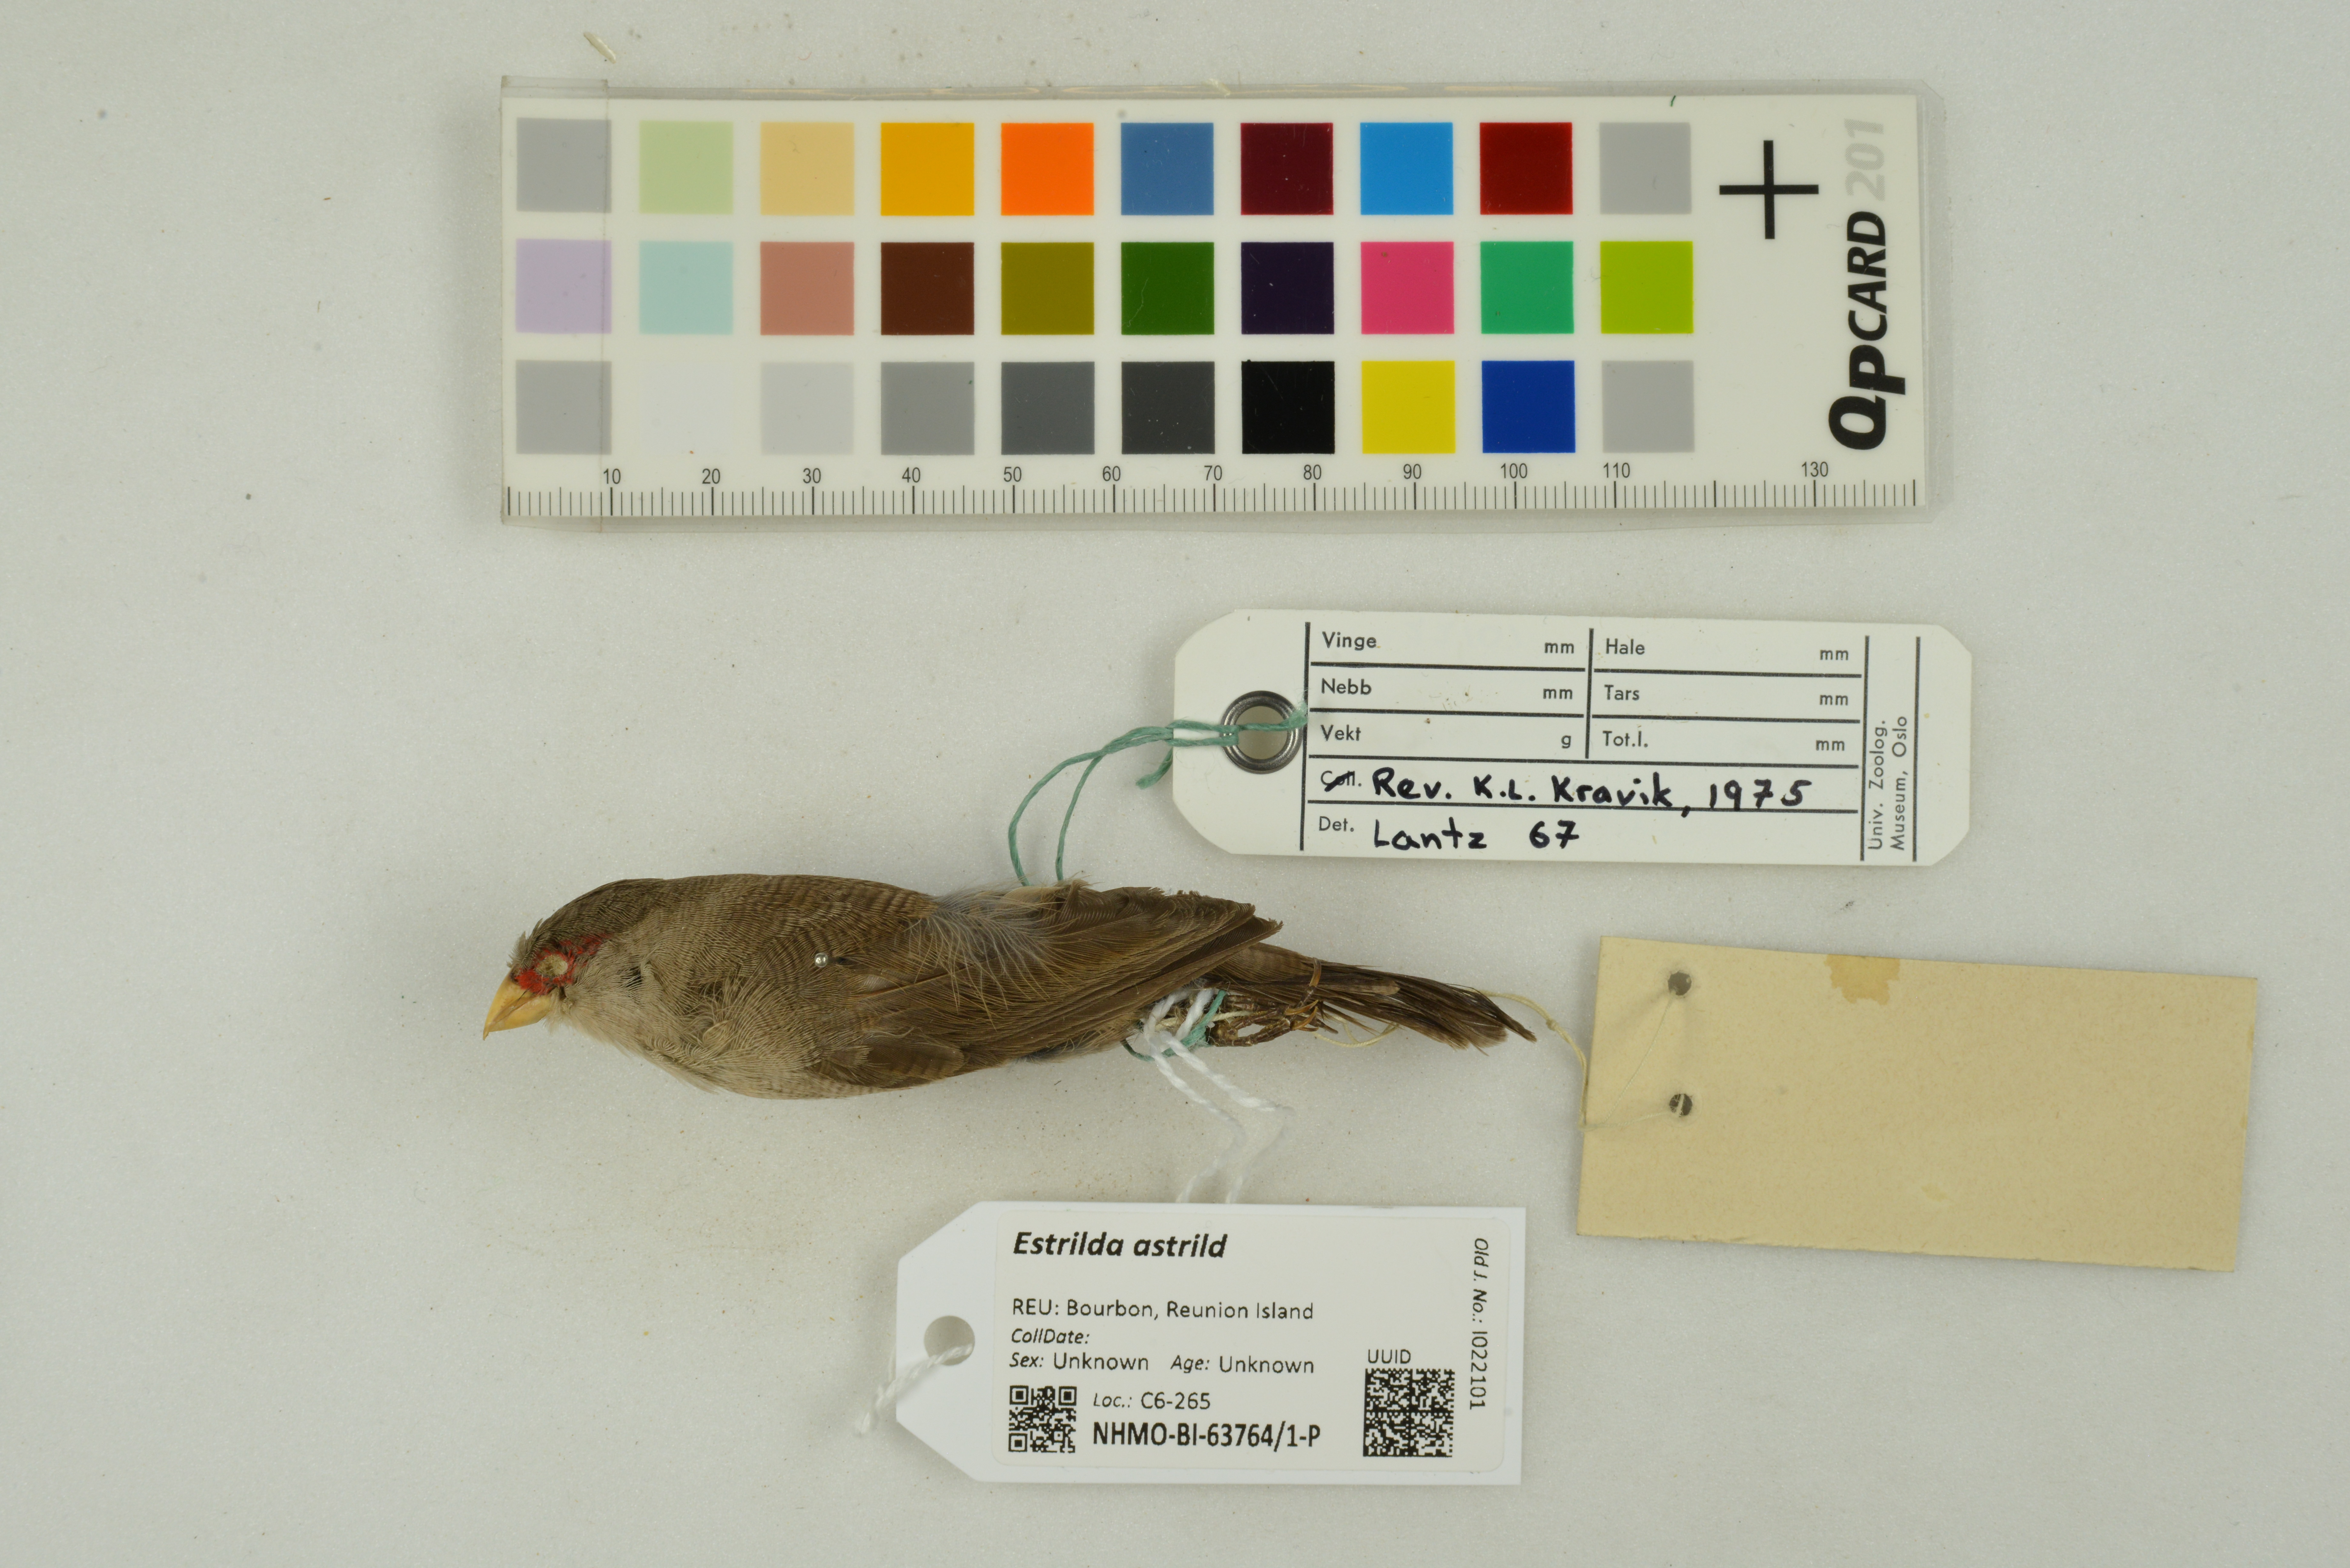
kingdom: Animalia
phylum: Chordata
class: Aves
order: Passeriformes
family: Estrildidae
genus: Estrilda
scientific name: Estrilda astrild
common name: Common waxbill
